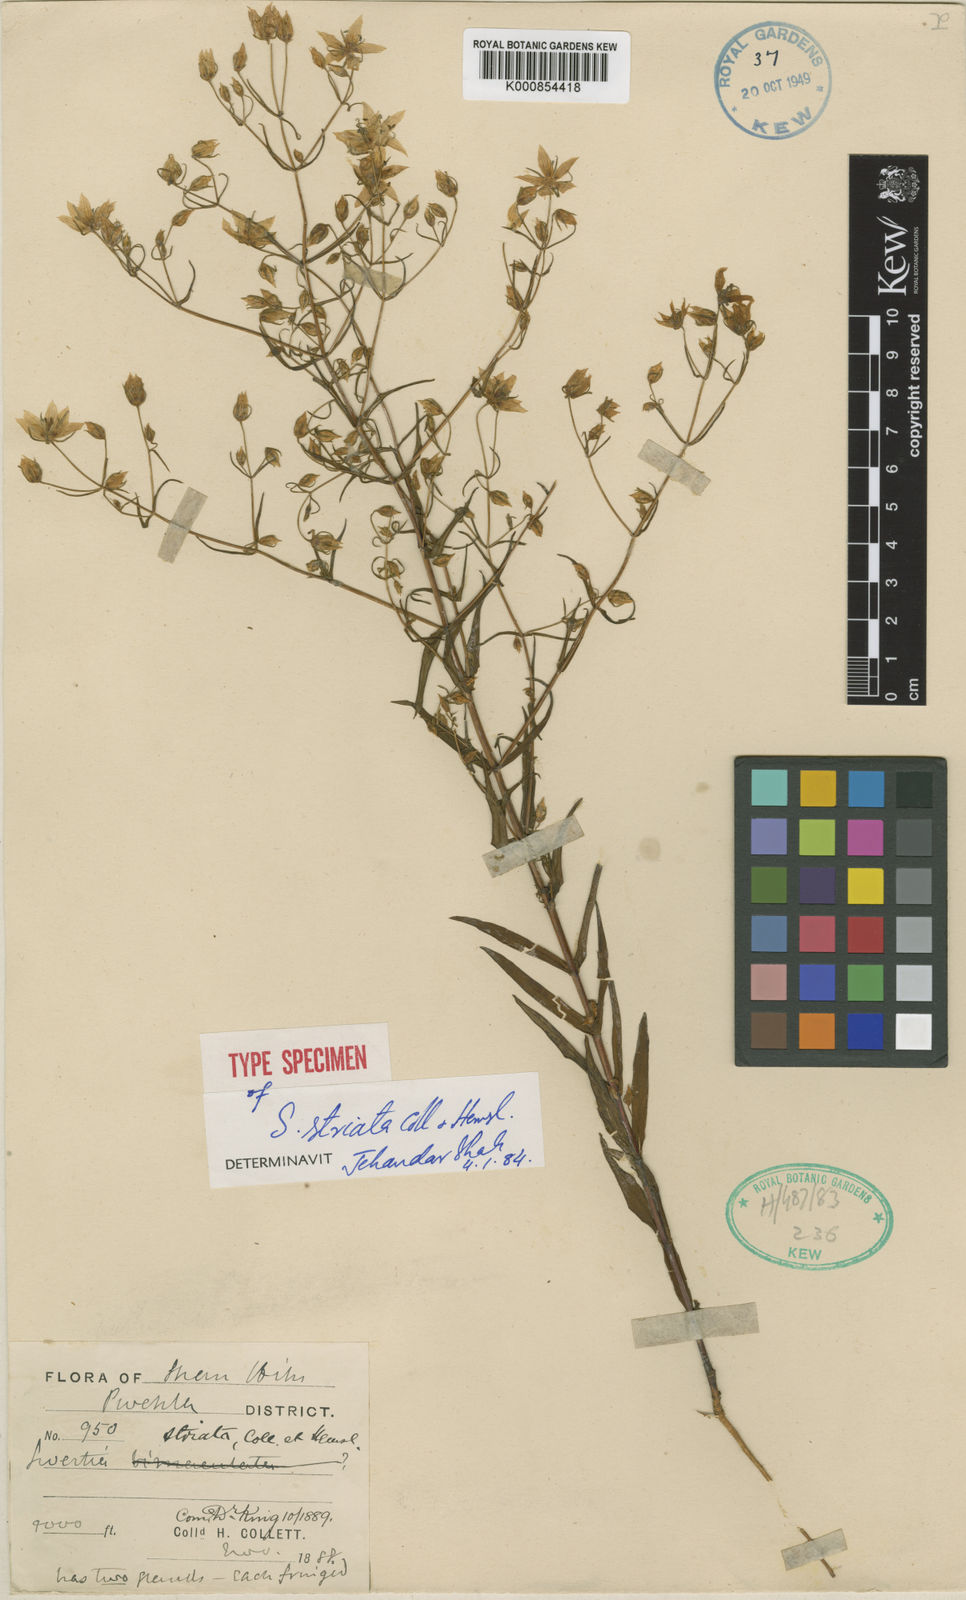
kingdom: Plantae
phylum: Tracheophyta
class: Magnoliopsida
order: Gentianales
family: Gentianaceae
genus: Swertia
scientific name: Swertia striata
